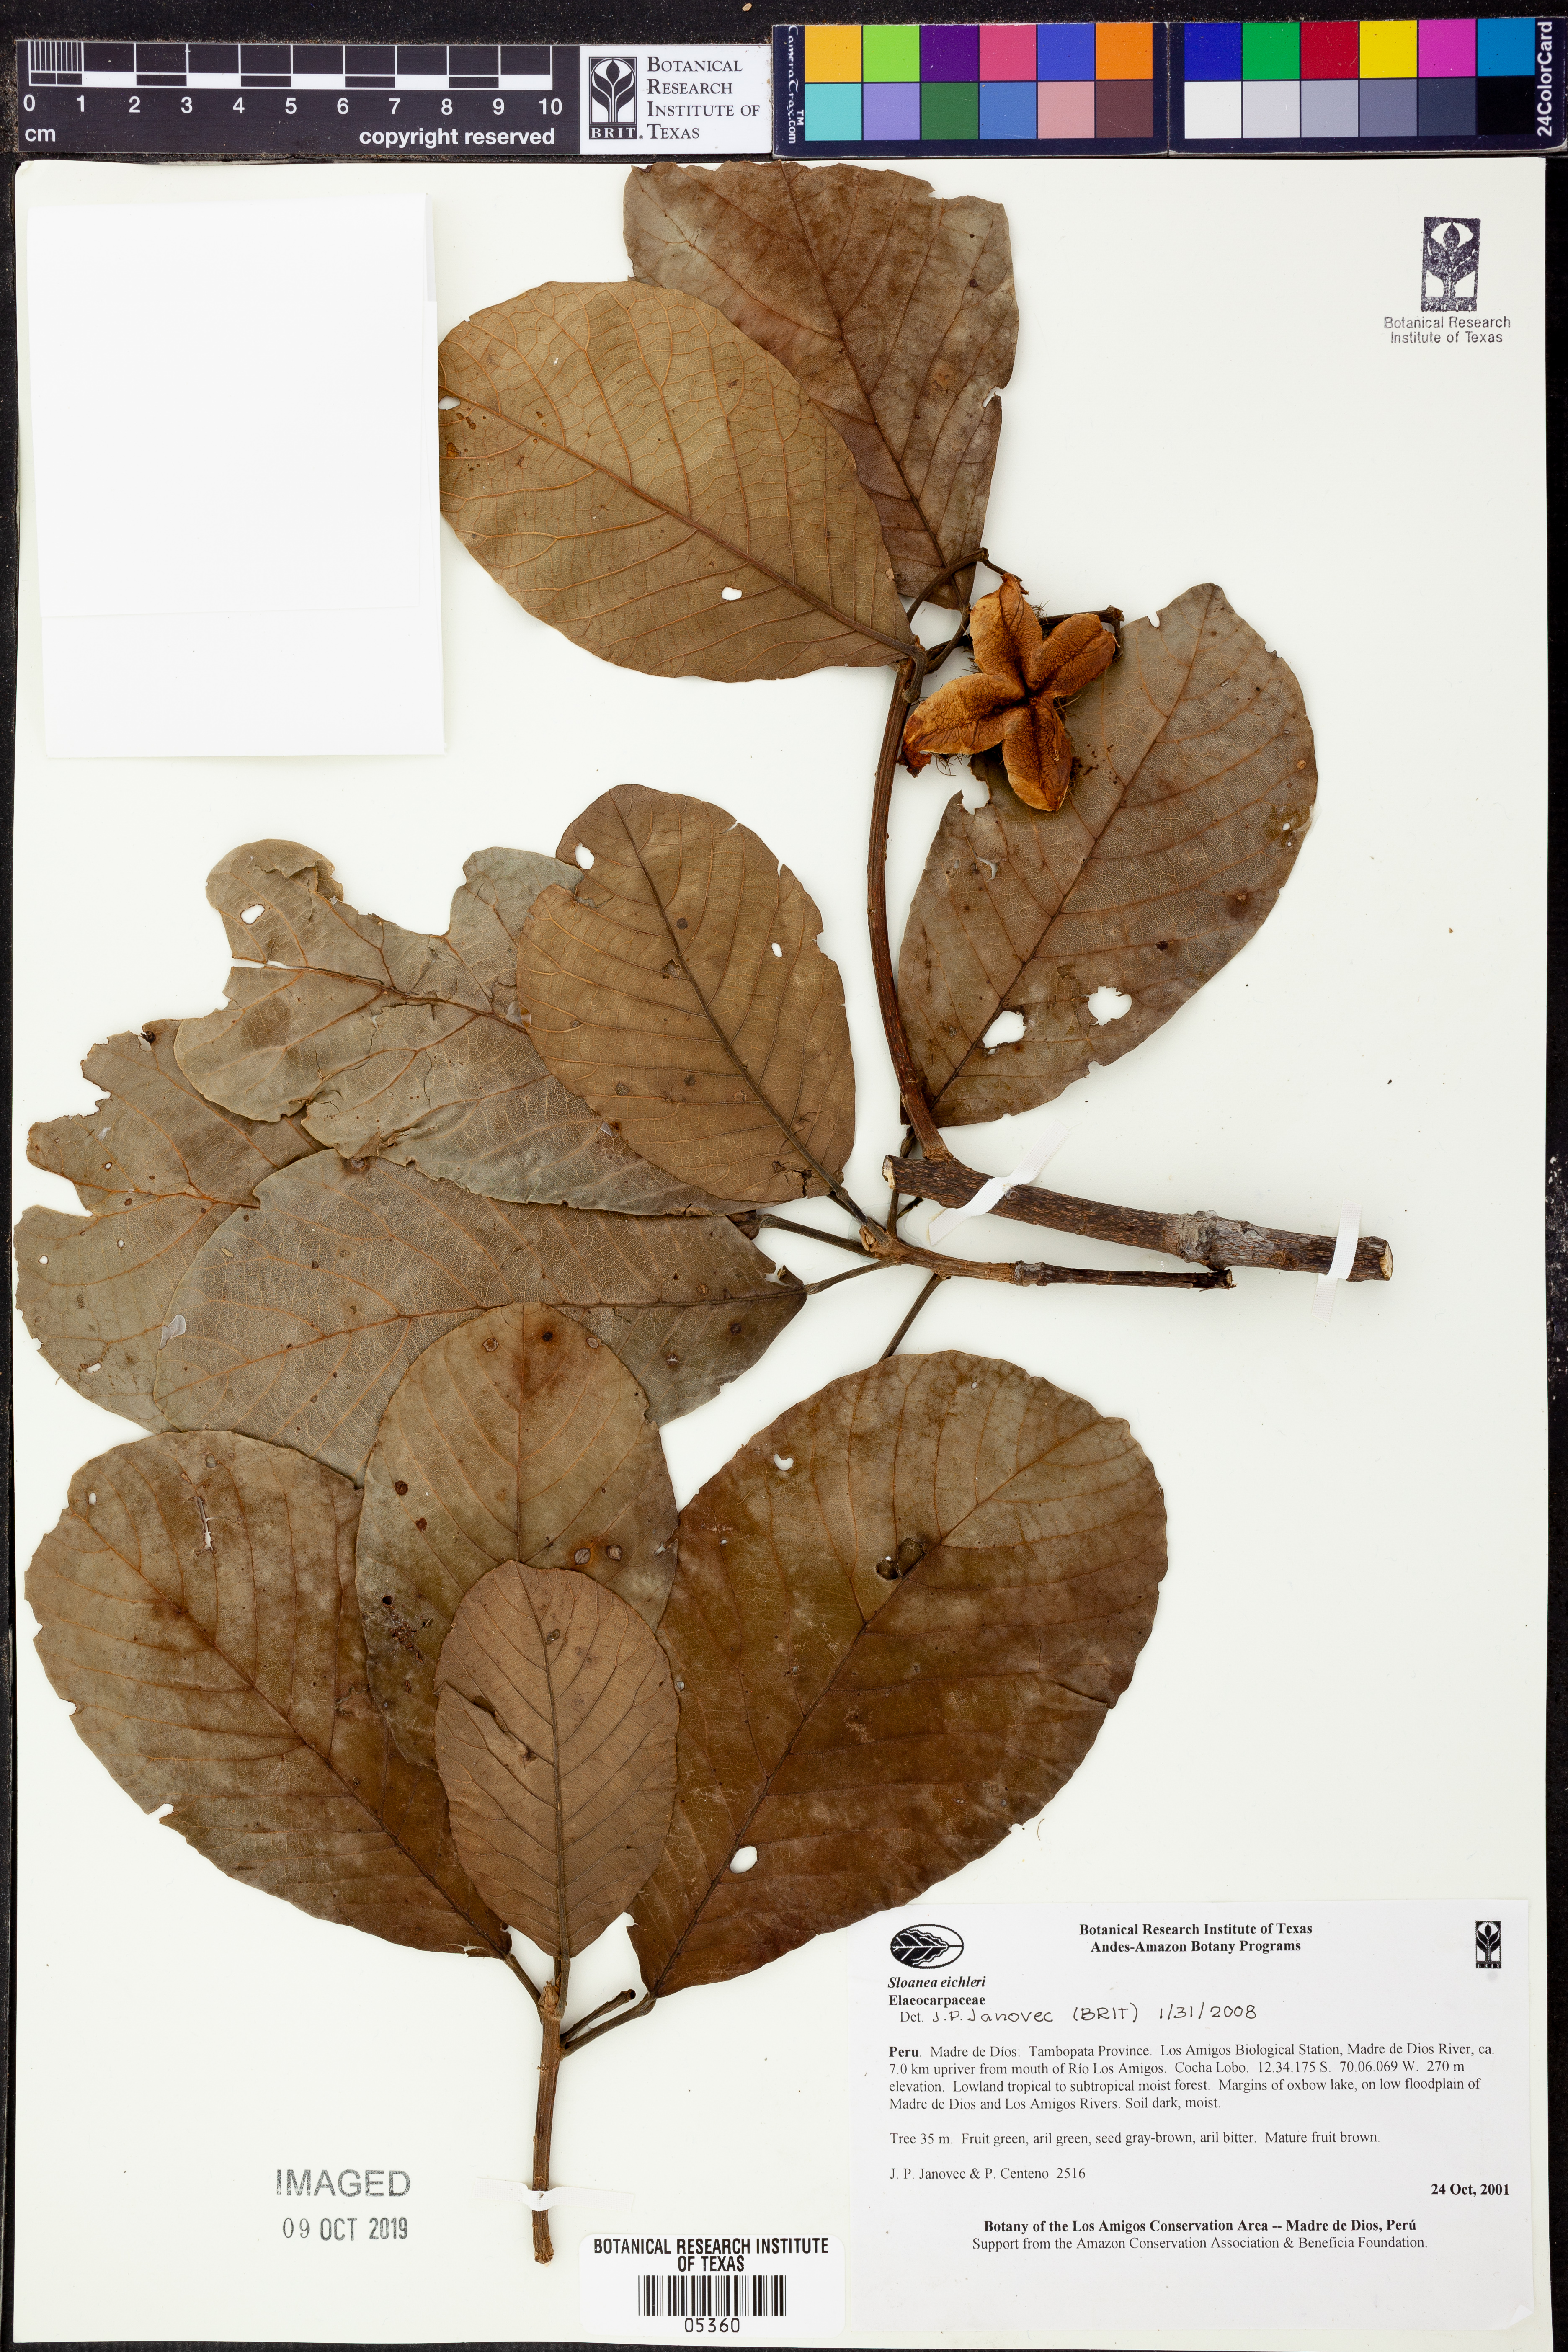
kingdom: Plantae
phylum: Tracheophyta
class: Magnoliopsida
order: Oxalidales
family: Elaeocarpaceae
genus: Sloanea
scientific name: Sloanea
